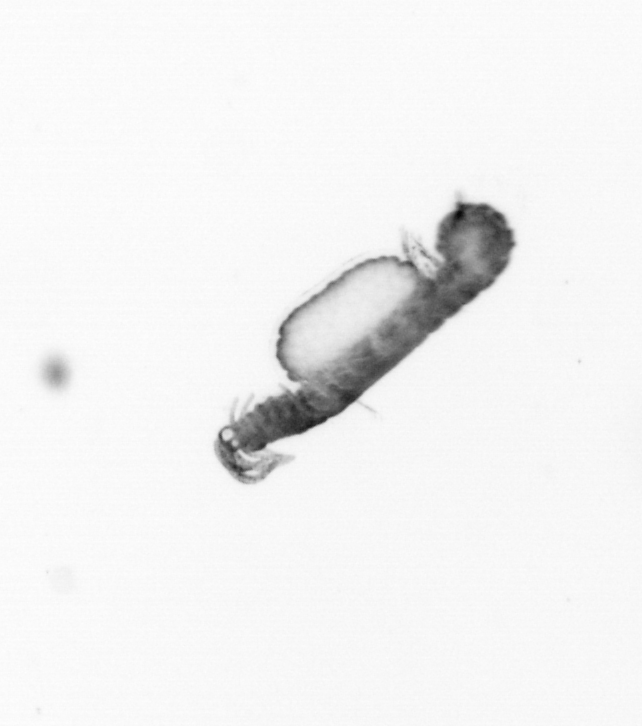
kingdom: Animalia
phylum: Annelida
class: Polychaeta
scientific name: Polychaeta
